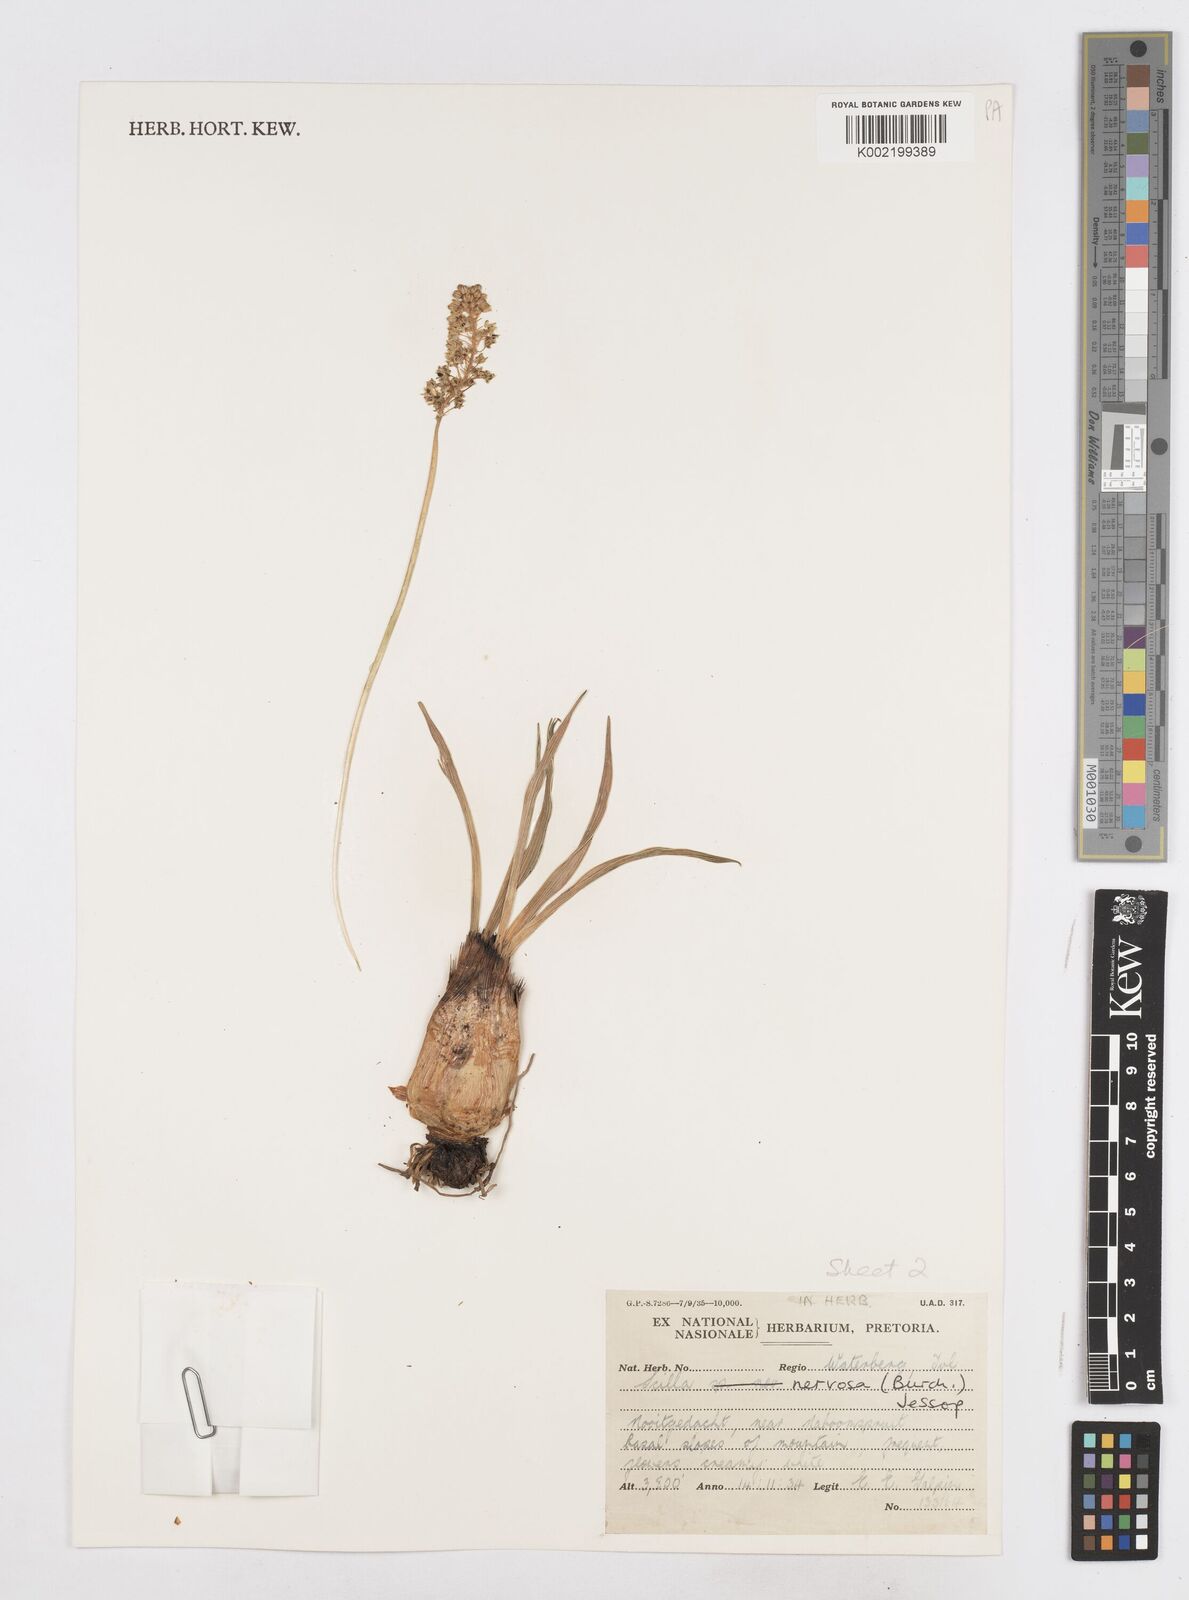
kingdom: Plantae
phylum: Tracheophyta
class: Liliopsida
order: Asparagales
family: Asparagaceae
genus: Schizocarphus
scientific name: Schizocarphus nervosus
